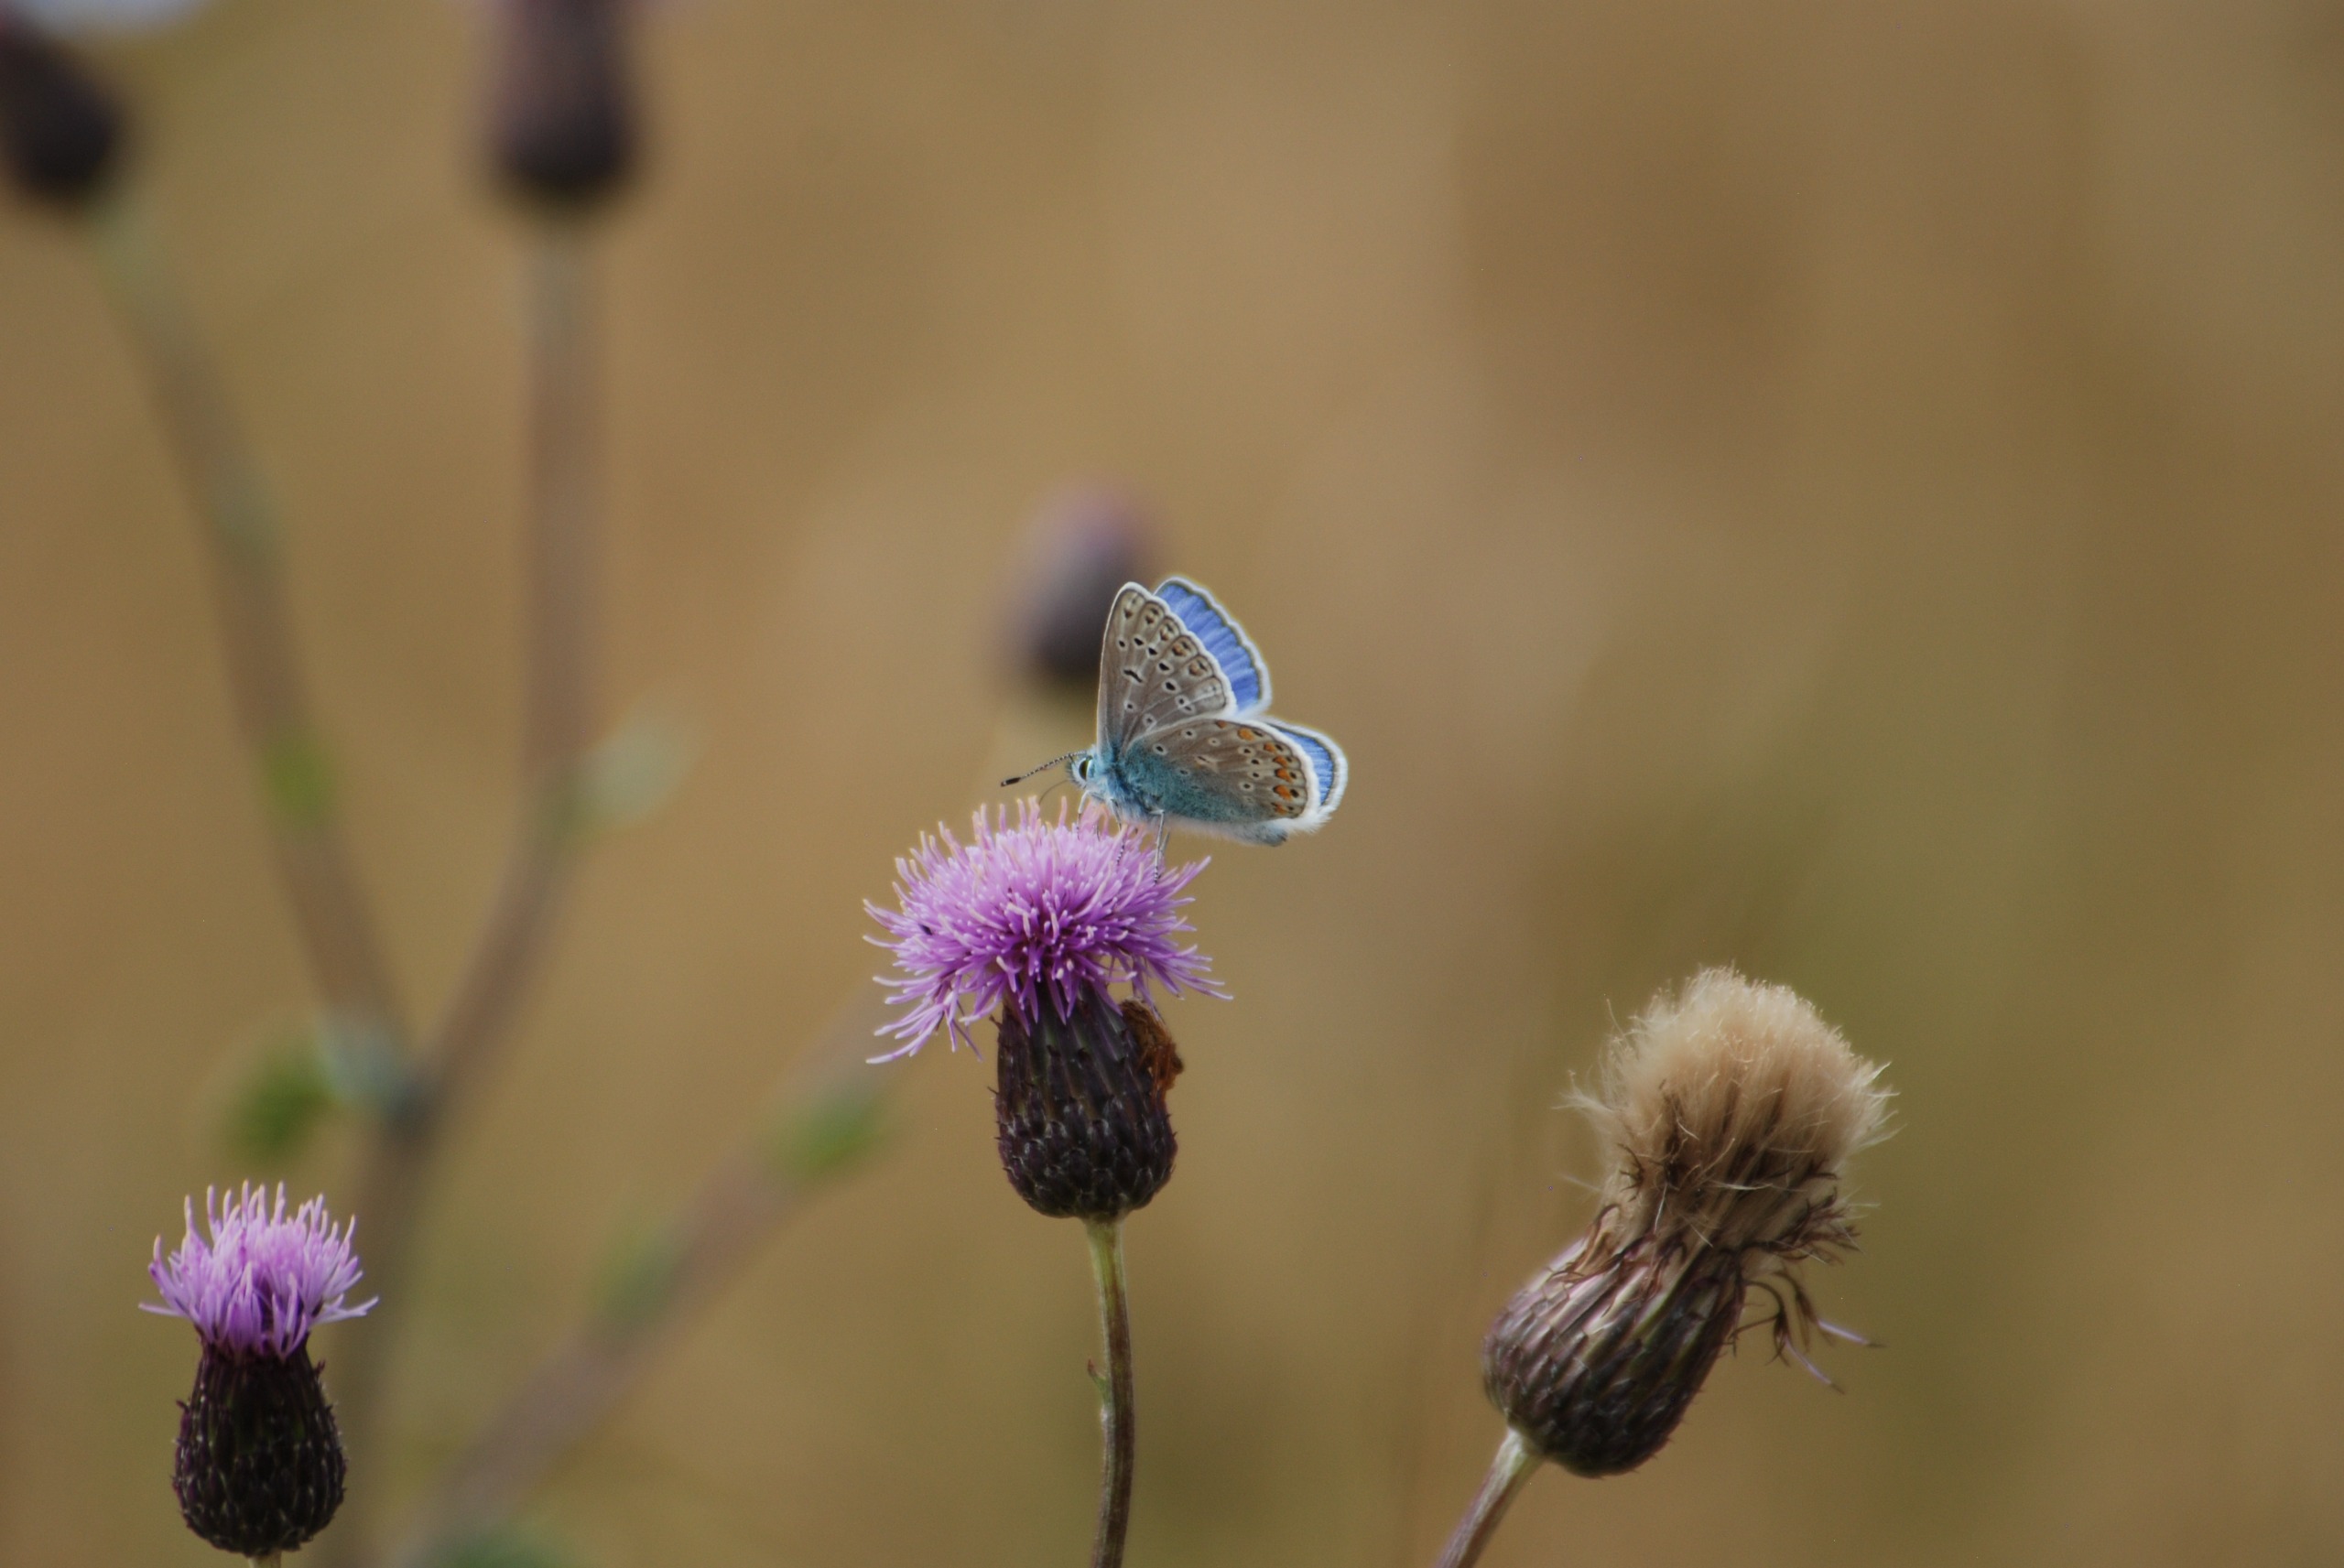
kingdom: Animalia
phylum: Arthropoda
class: Insecta
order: Lepidoptera
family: Lycaenidae
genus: Polyommatus
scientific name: Polyommatus icarus
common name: Almindelig blåfugl
